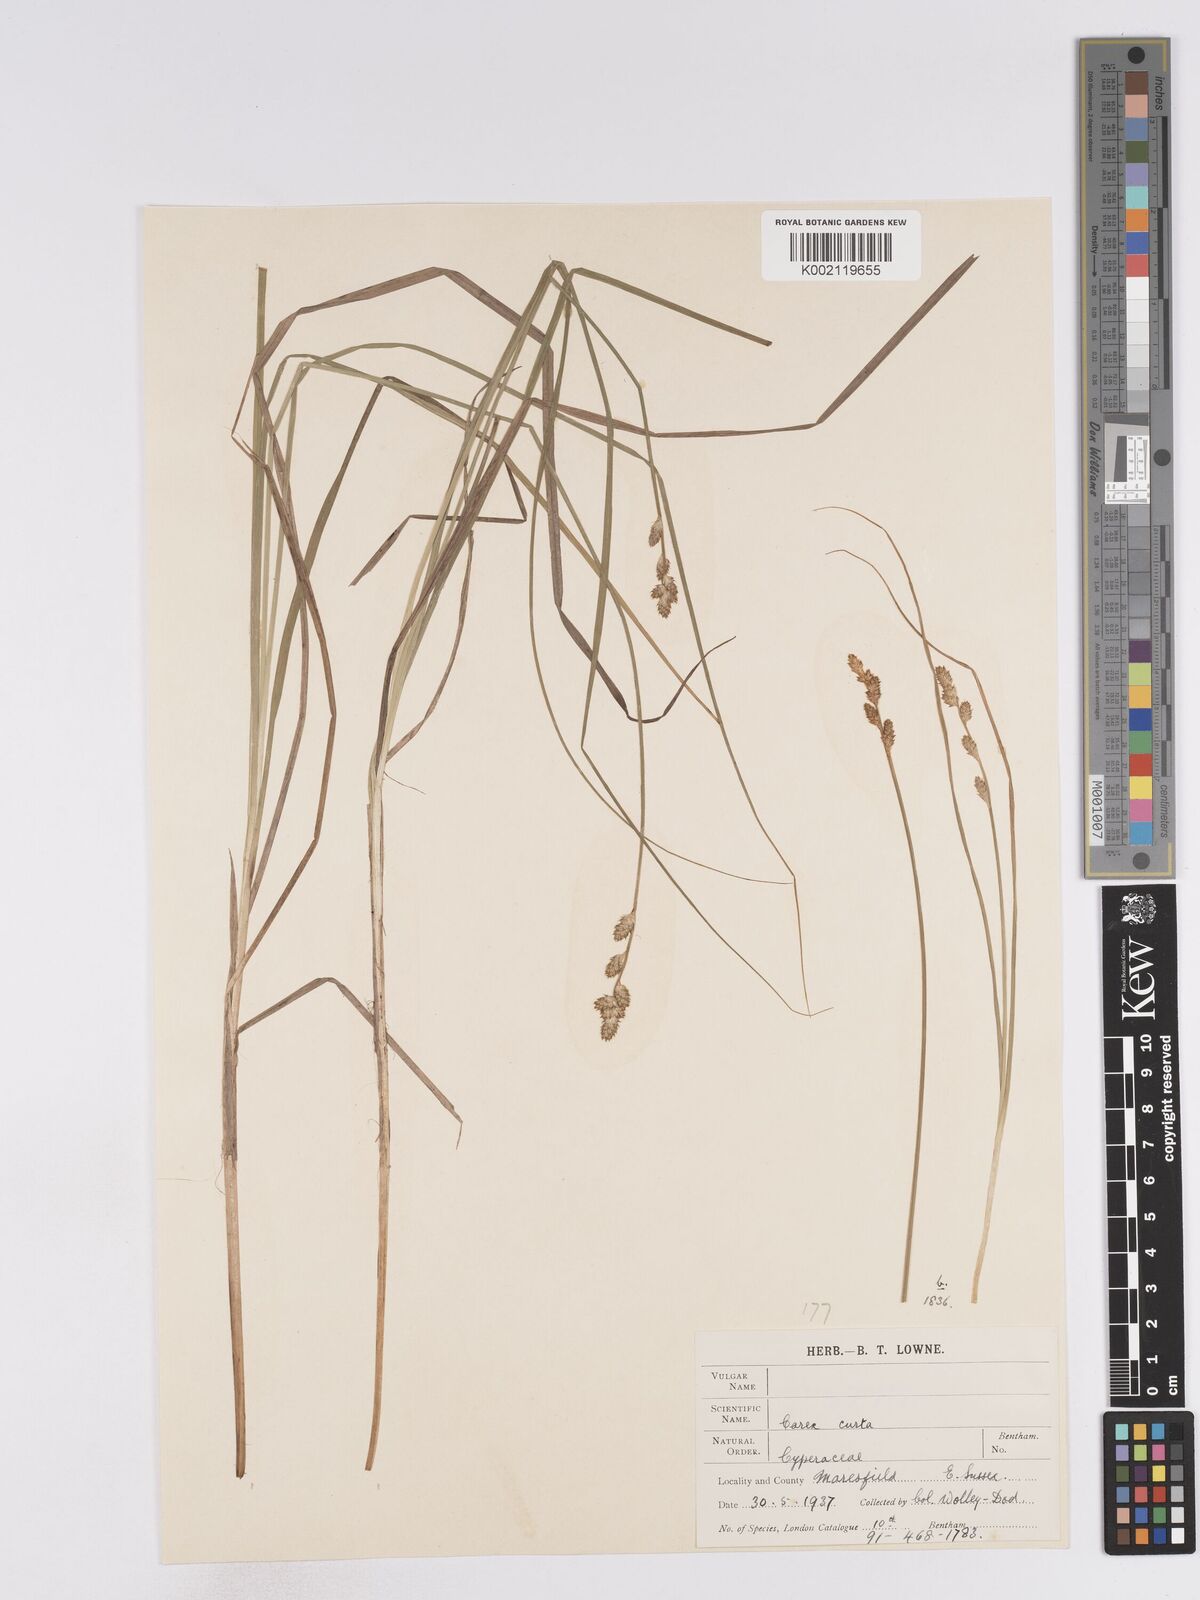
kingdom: Plantae
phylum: Tracheophyta
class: Liliopsida
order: Poales
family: Cyperaceae
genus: Carex
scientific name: Carex curta
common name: White sedge
